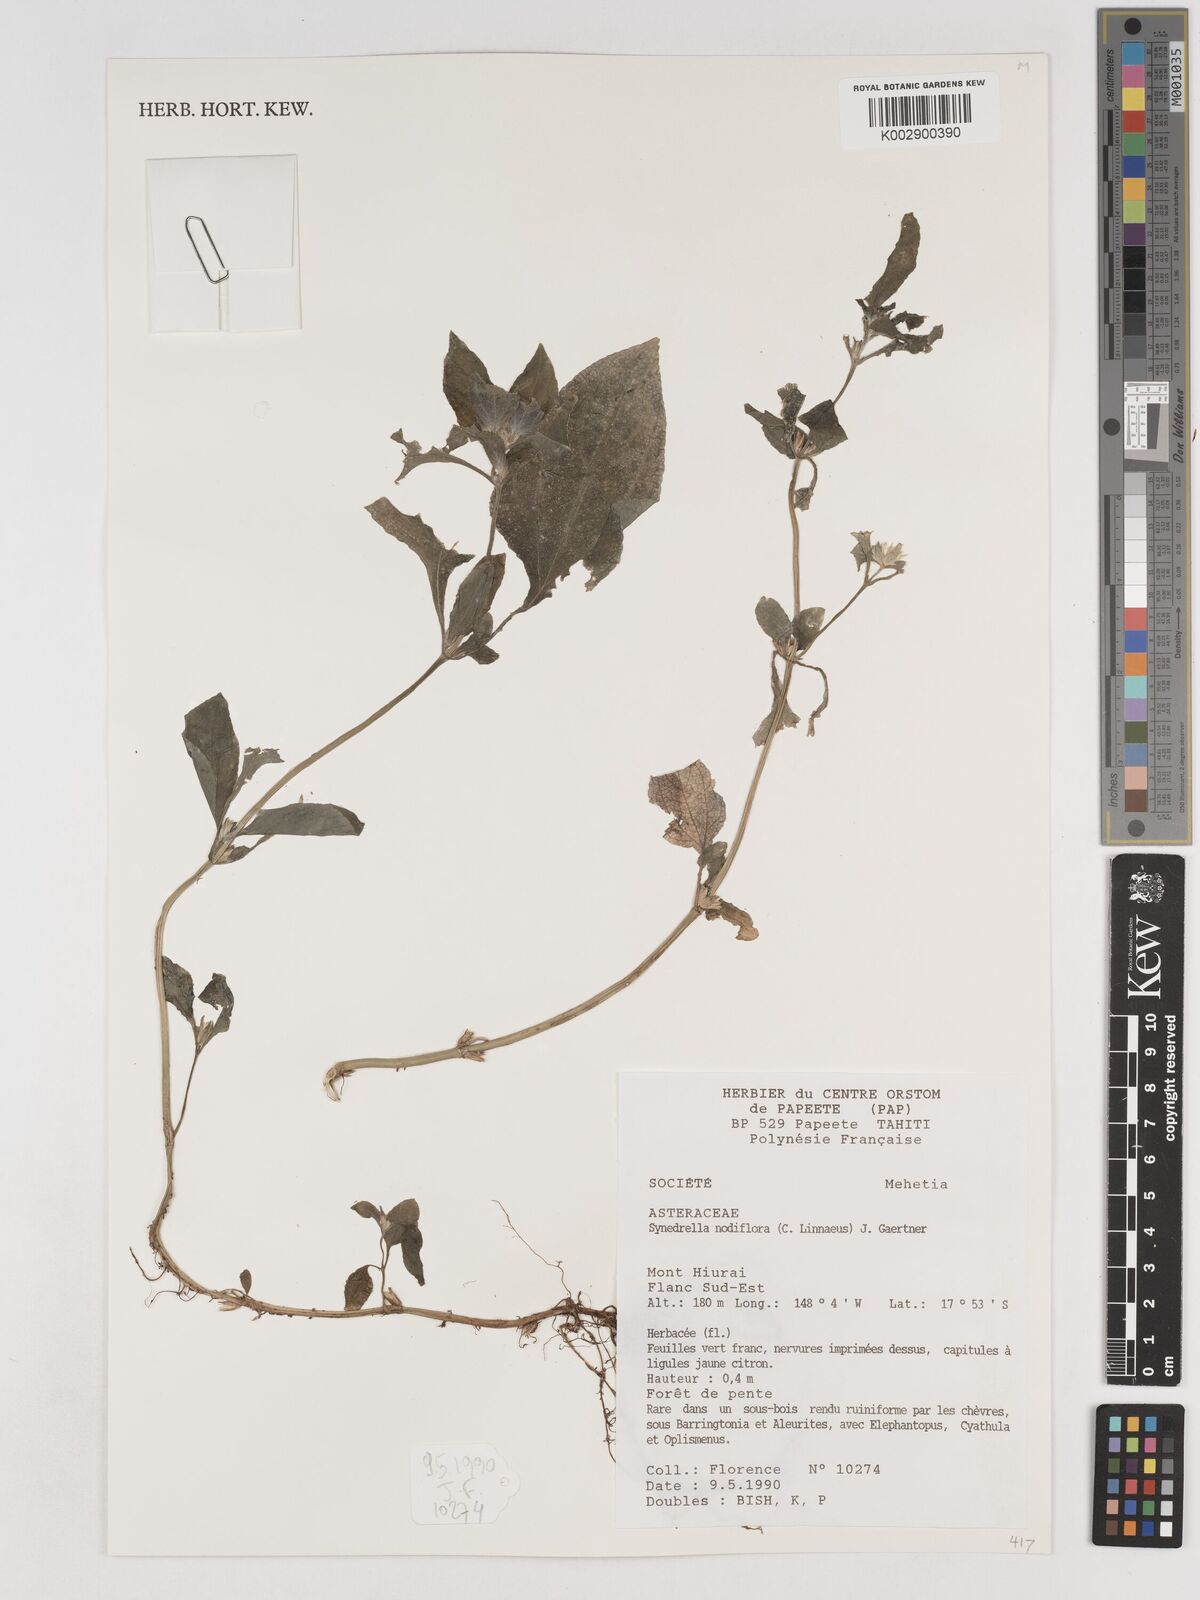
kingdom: Plantae
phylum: Tracheophyta
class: Magnoliopsida
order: Asterales
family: Asteraceae
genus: Synedrella
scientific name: Synedrella nodiflora
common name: Nodeweed
